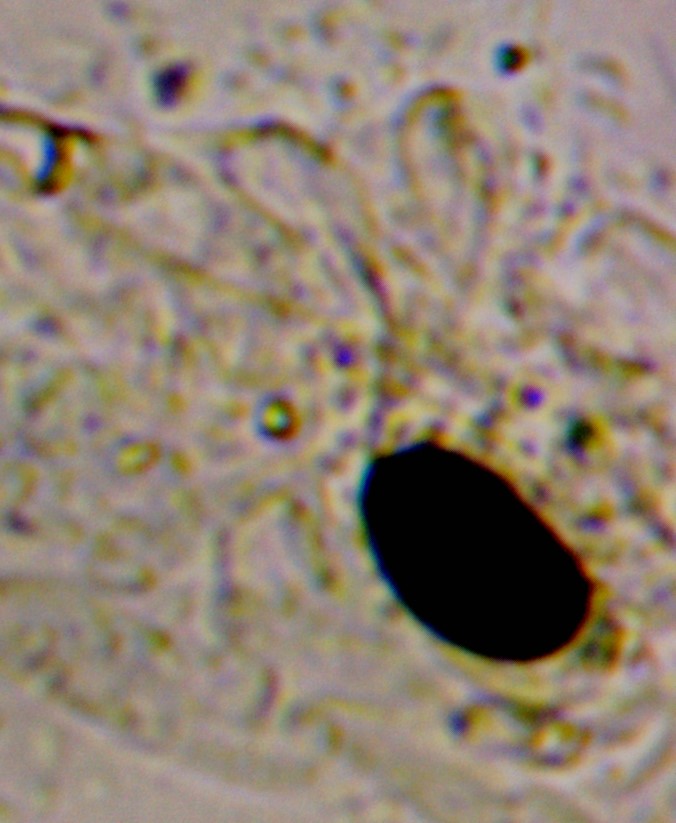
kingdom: Fungi
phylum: Basidiomycota
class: Agaricomycetes
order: Agaricales
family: Psathyrellaceae
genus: Parasola
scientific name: Parasola plicatilis
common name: plæne-hjulhat
